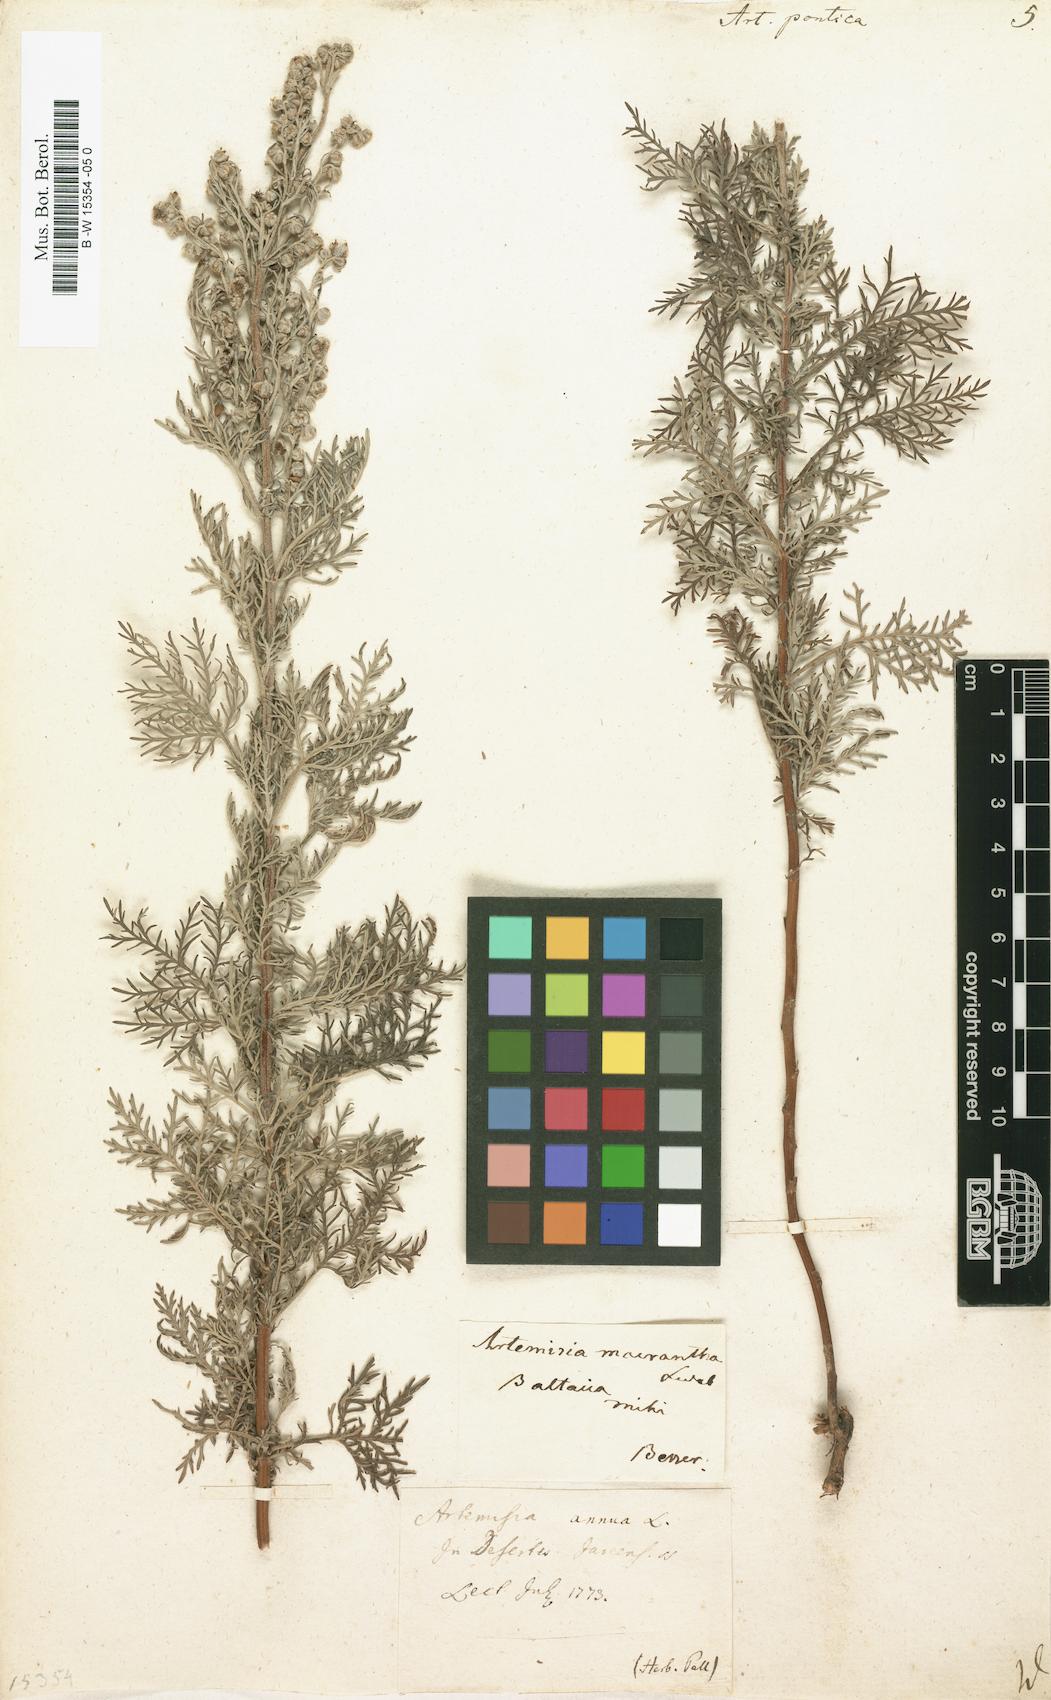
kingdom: Plantae
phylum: Tracheophyta
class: Magnoliopsida
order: Asterales
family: Asteraceae
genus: Artemisia
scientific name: Artemisia pontica
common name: Roman wormwood
